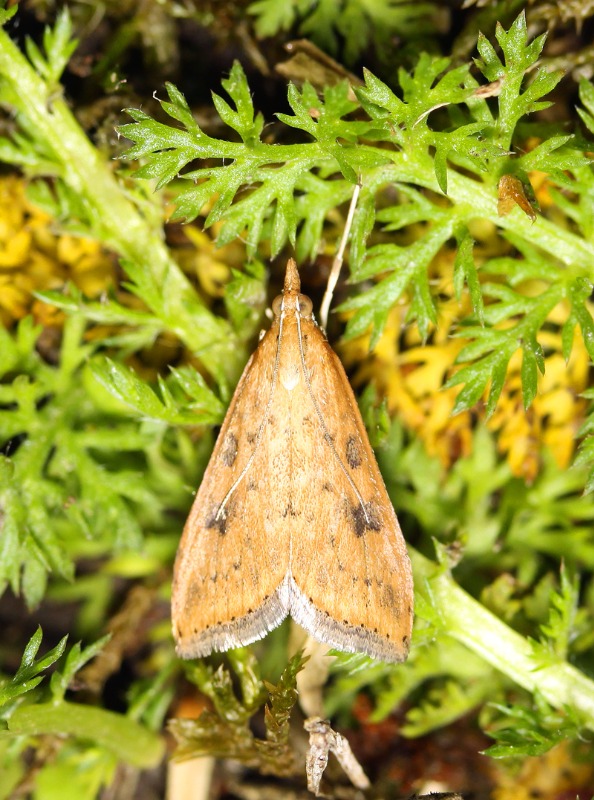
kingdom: Animalia
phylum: Arthropoda
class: Insecta
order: Lepidoptera
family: Crambidae
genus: Udea
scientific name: Udea ferrugalis
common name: Vandrerenghalvmøl
